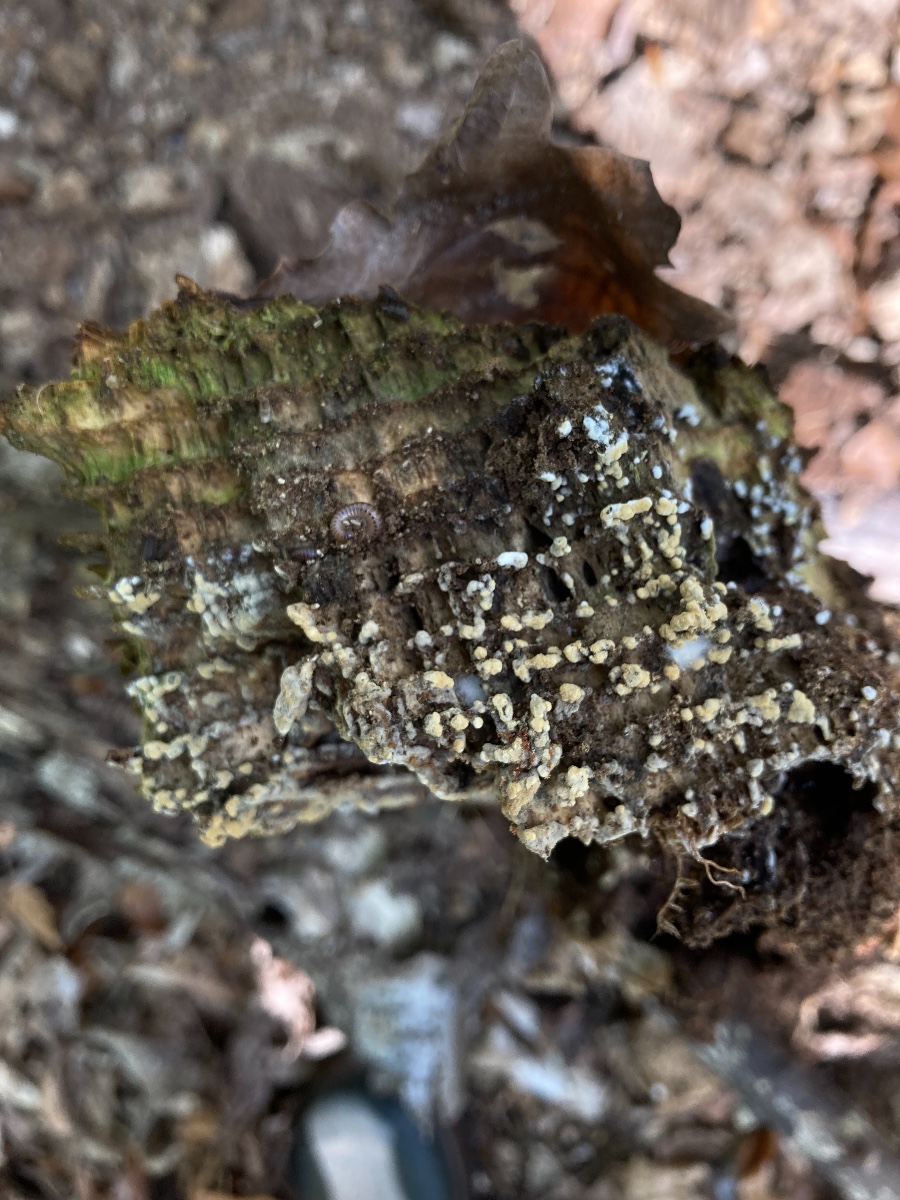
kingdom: Fungi
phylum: Basidiomycota
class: Agaricomycetes
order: Cantharellales
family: Botryobasidiaceae
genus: Botryobasidium
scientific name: Botryobasidium aureum
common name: gylden spindhinde
